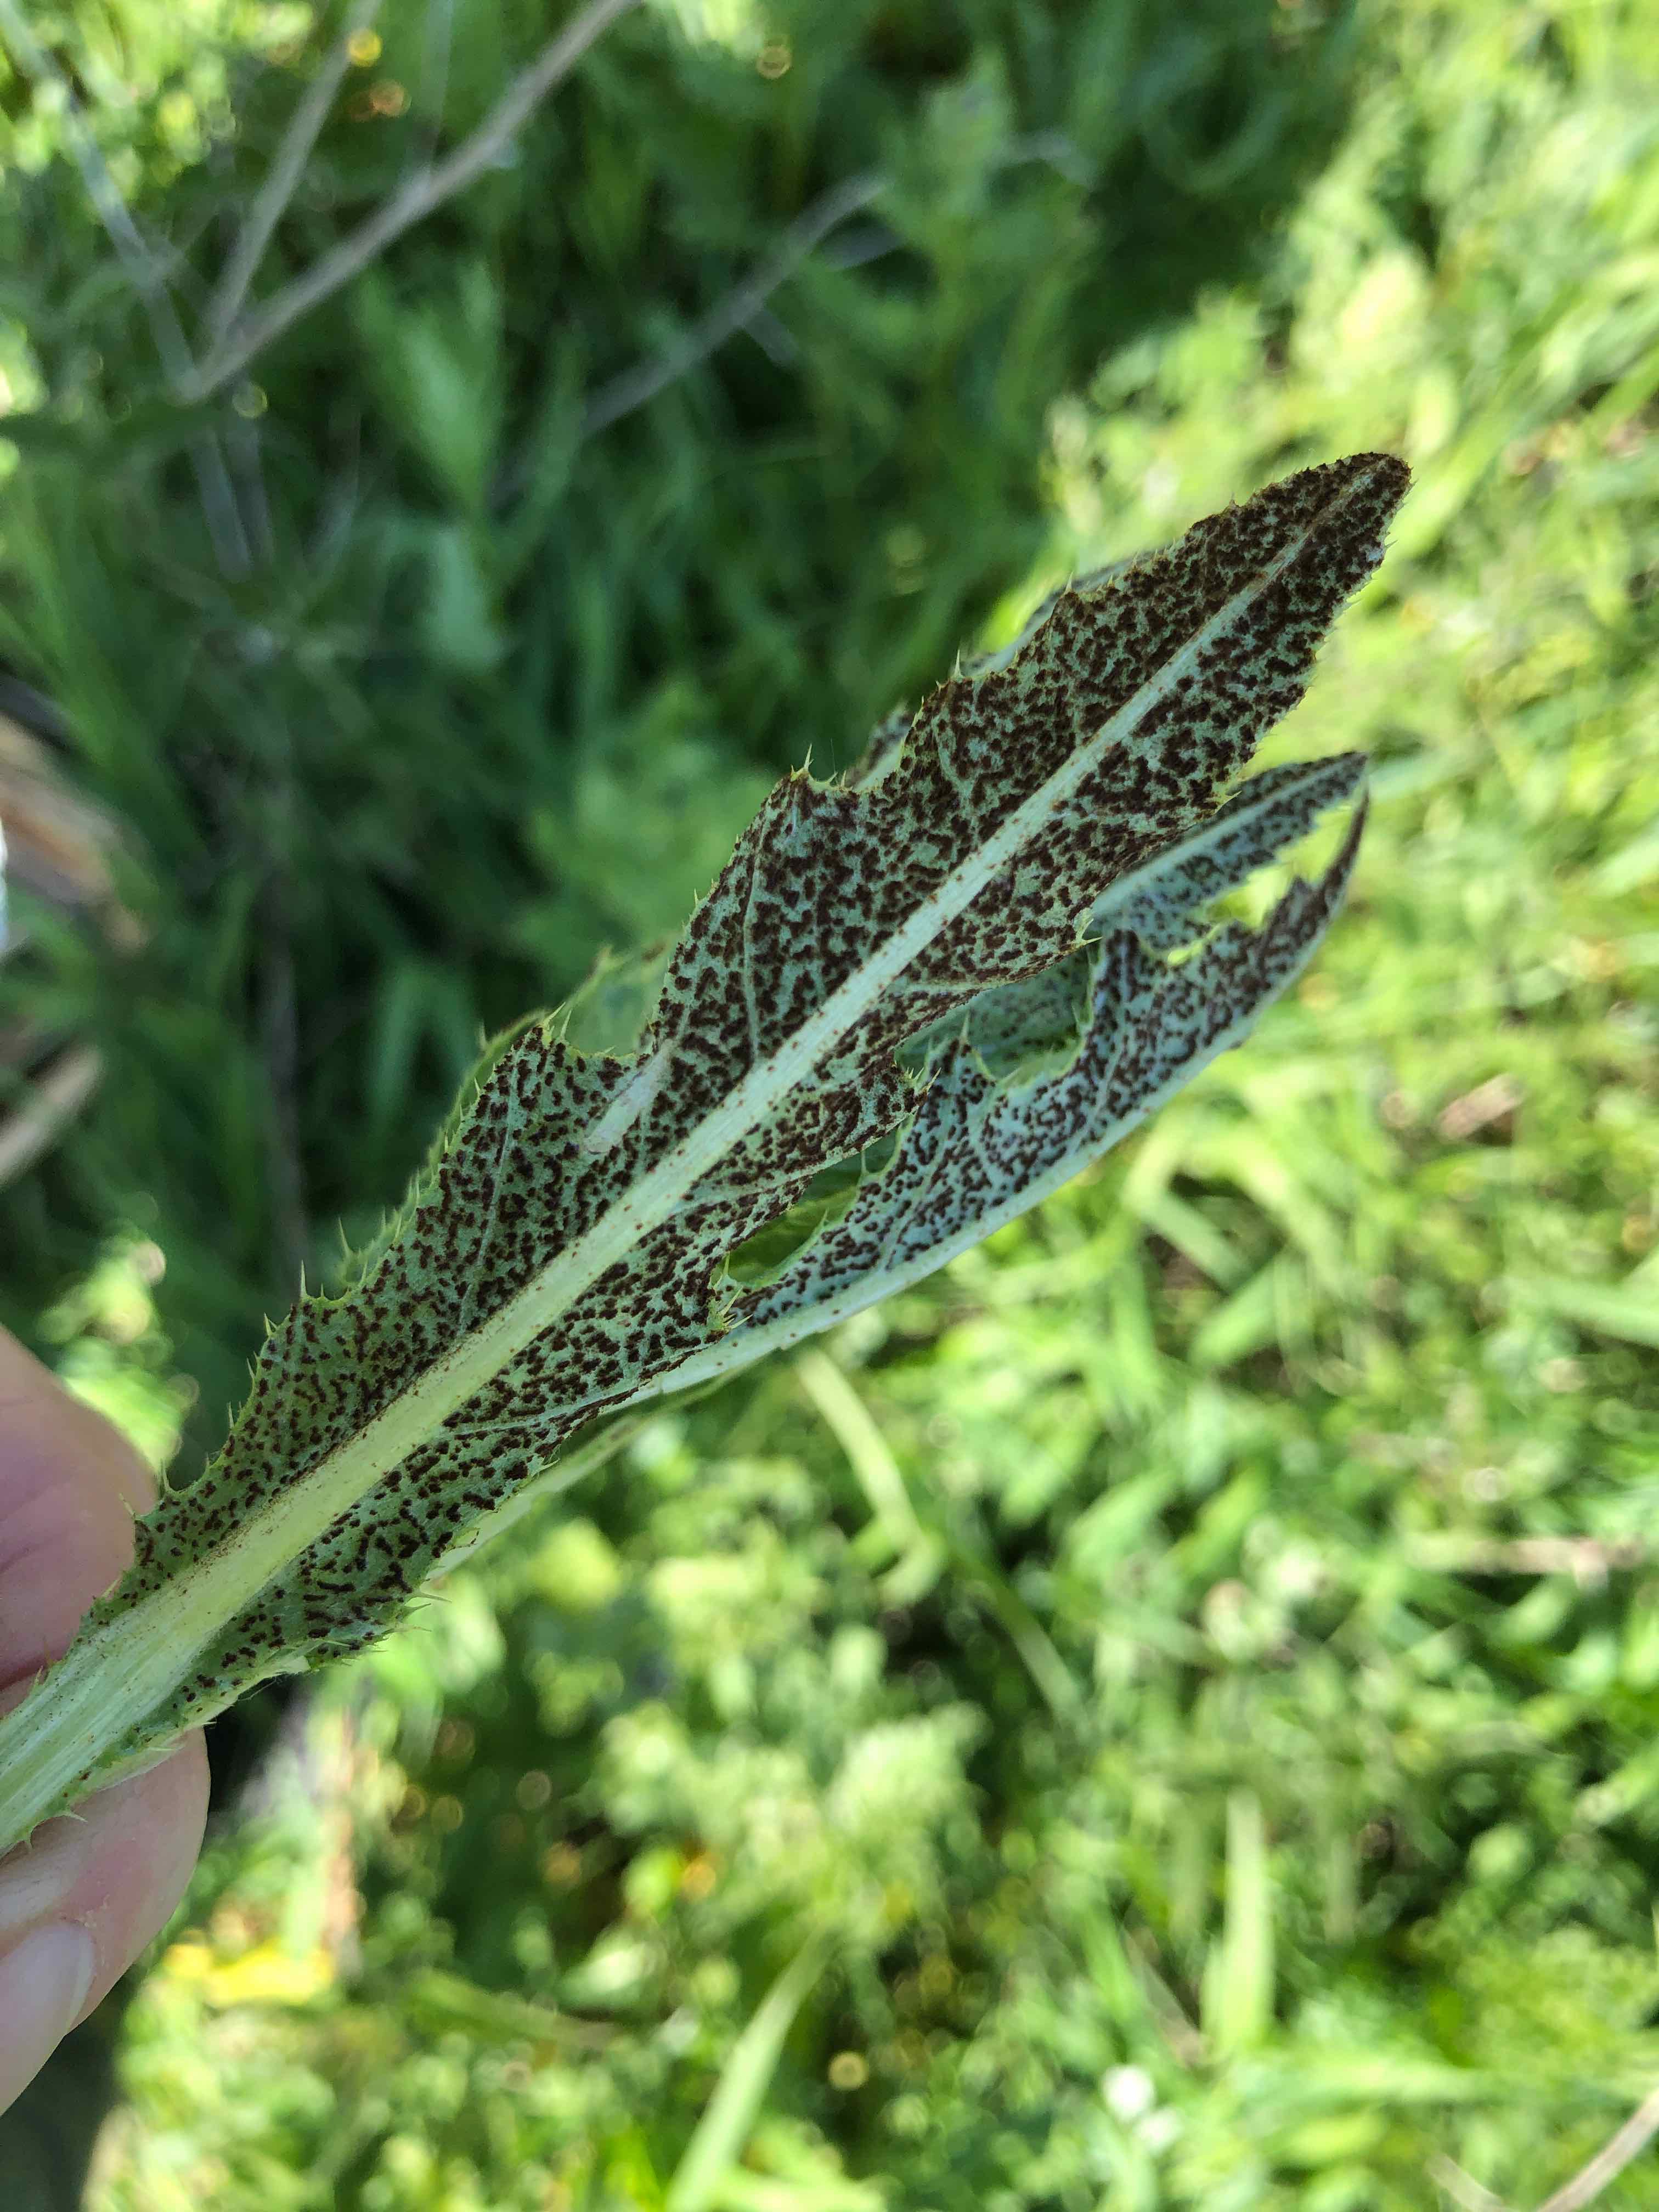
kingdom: Fungi
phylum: Basidiomycota
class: Pucciniomycetes
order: Pucciniales
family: Pucciniaceae
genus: Puccinia
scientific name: Puccinia suaveolens
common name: tidsel-tvecellerust
